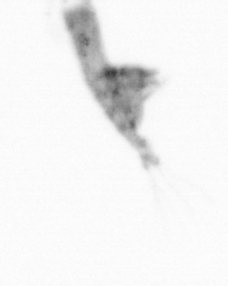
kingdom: Animalia
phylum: Arthropoda
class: Copepoda
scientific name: Copepoda
